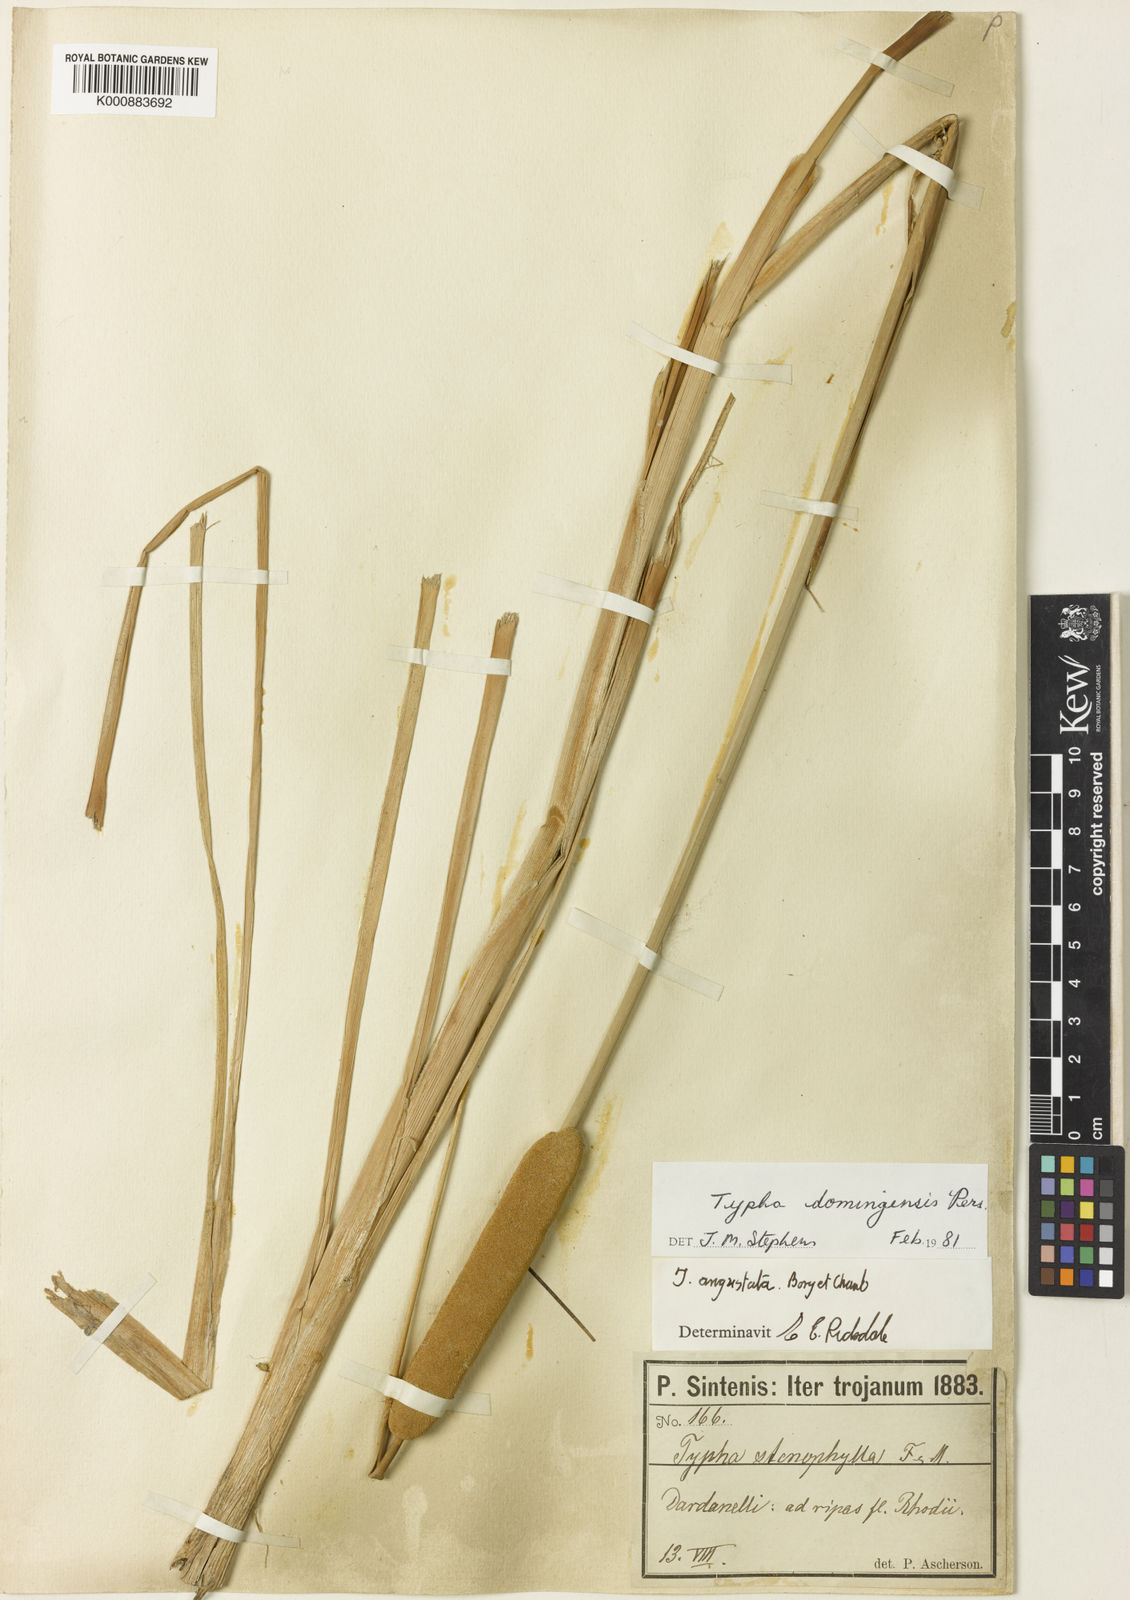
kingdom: Plantae
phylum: Tracheophyta
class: Liliopsida
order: Poales
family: Typhaceae
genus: Typha
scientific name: Typha domingensis
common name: Southern cattail
